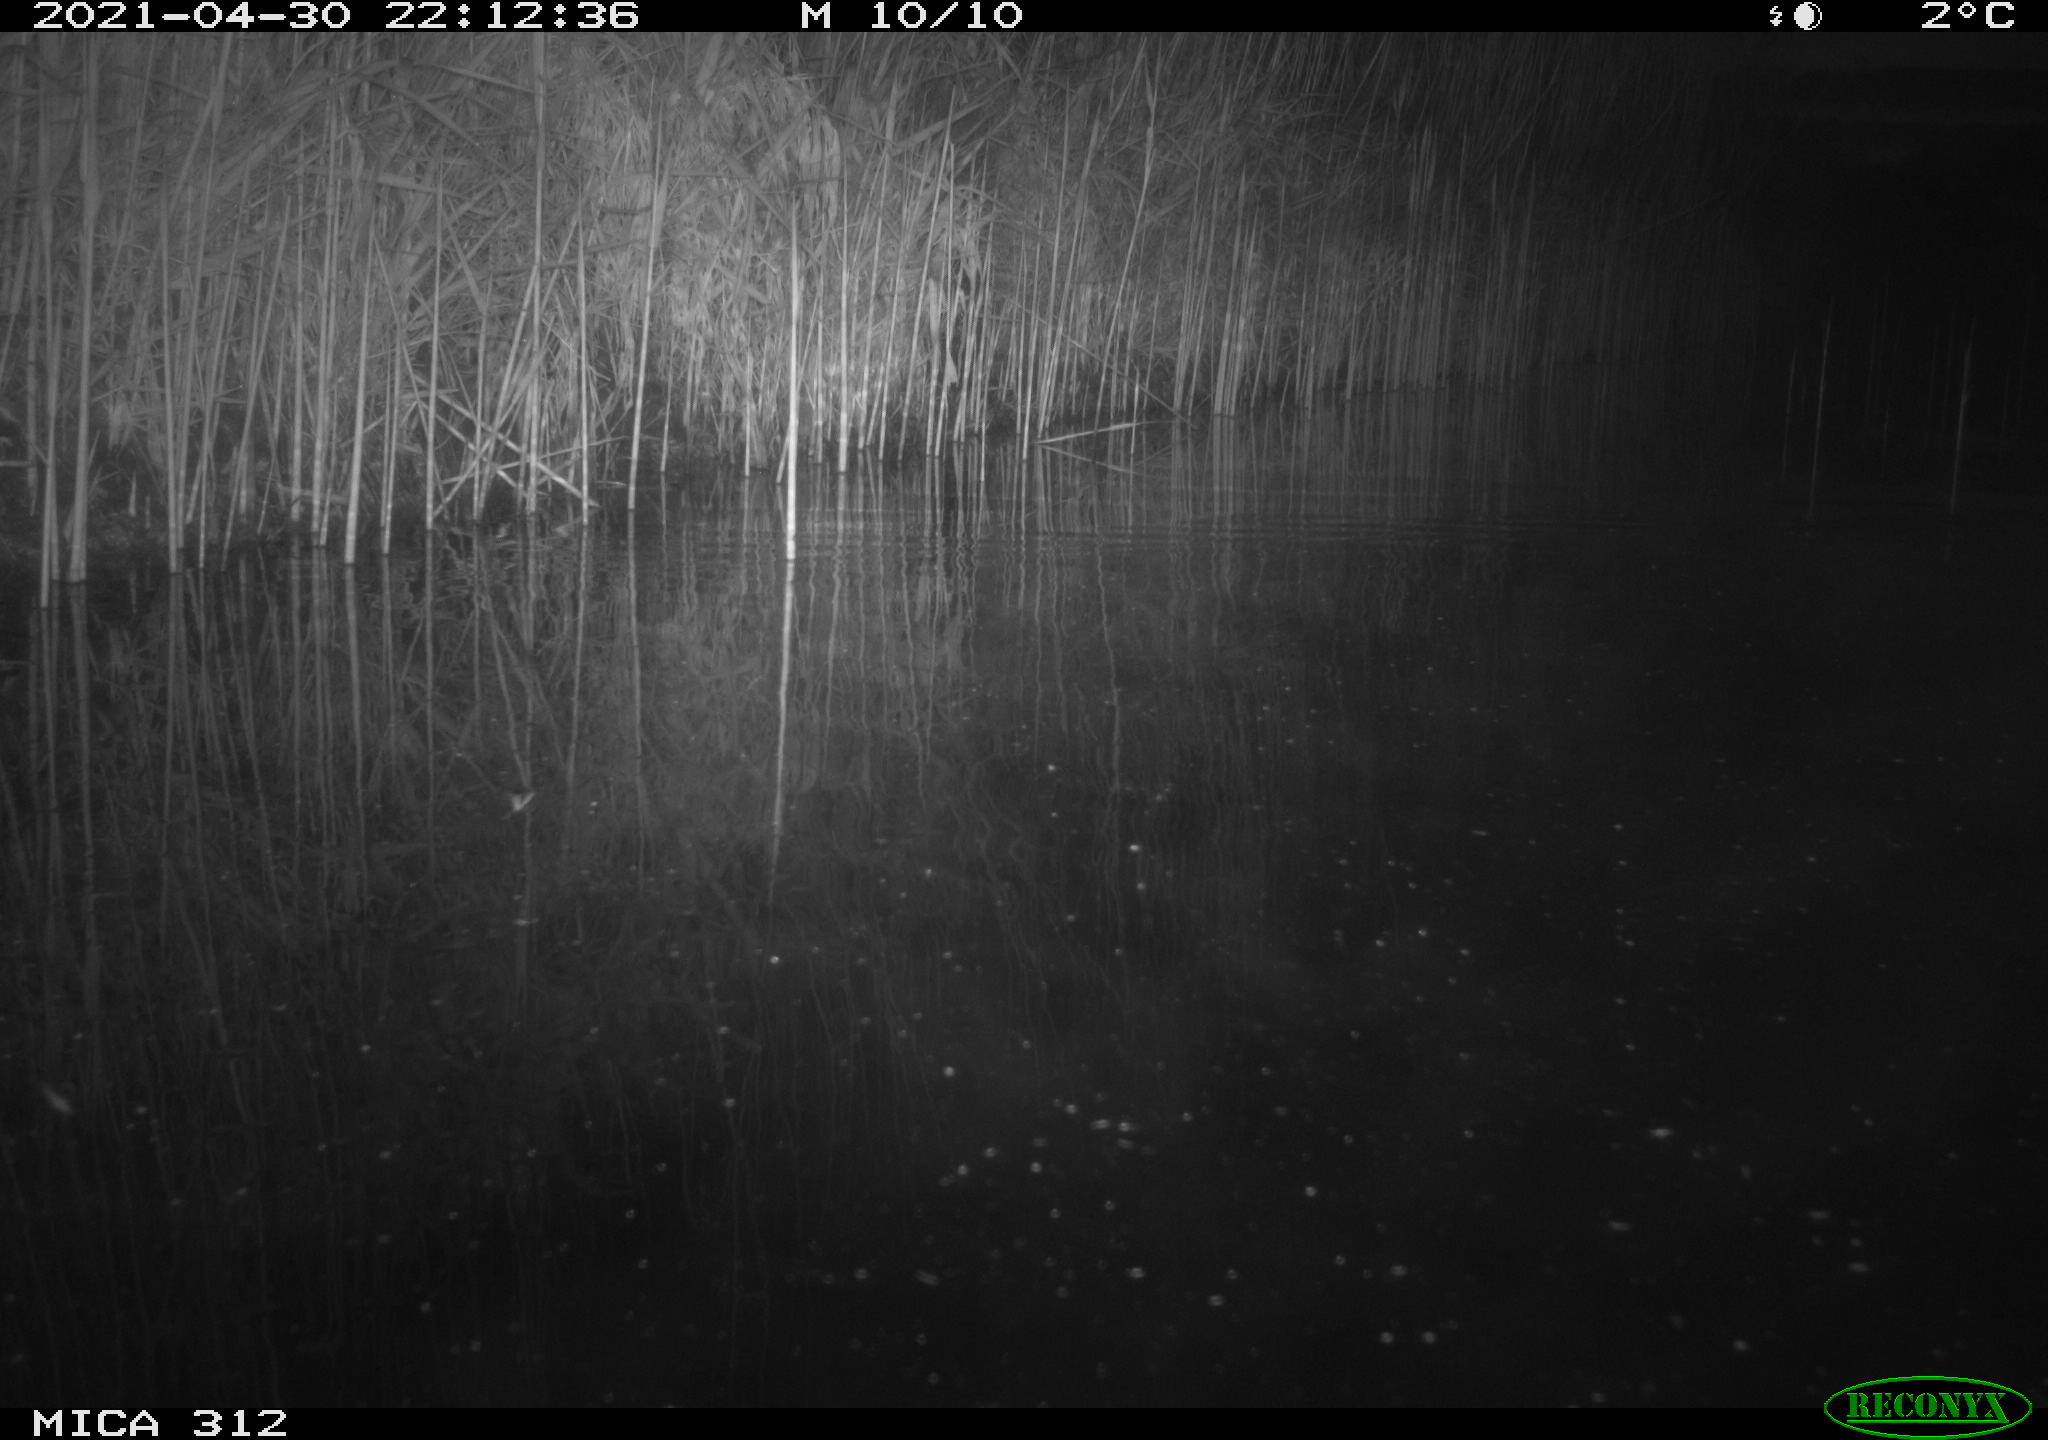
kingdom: Animalia
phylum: Chordata
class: Mammalia
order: Rodentia
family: Cricetidae
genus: Ondatra
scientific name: Ondatra zibethicus
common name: Muskrat
